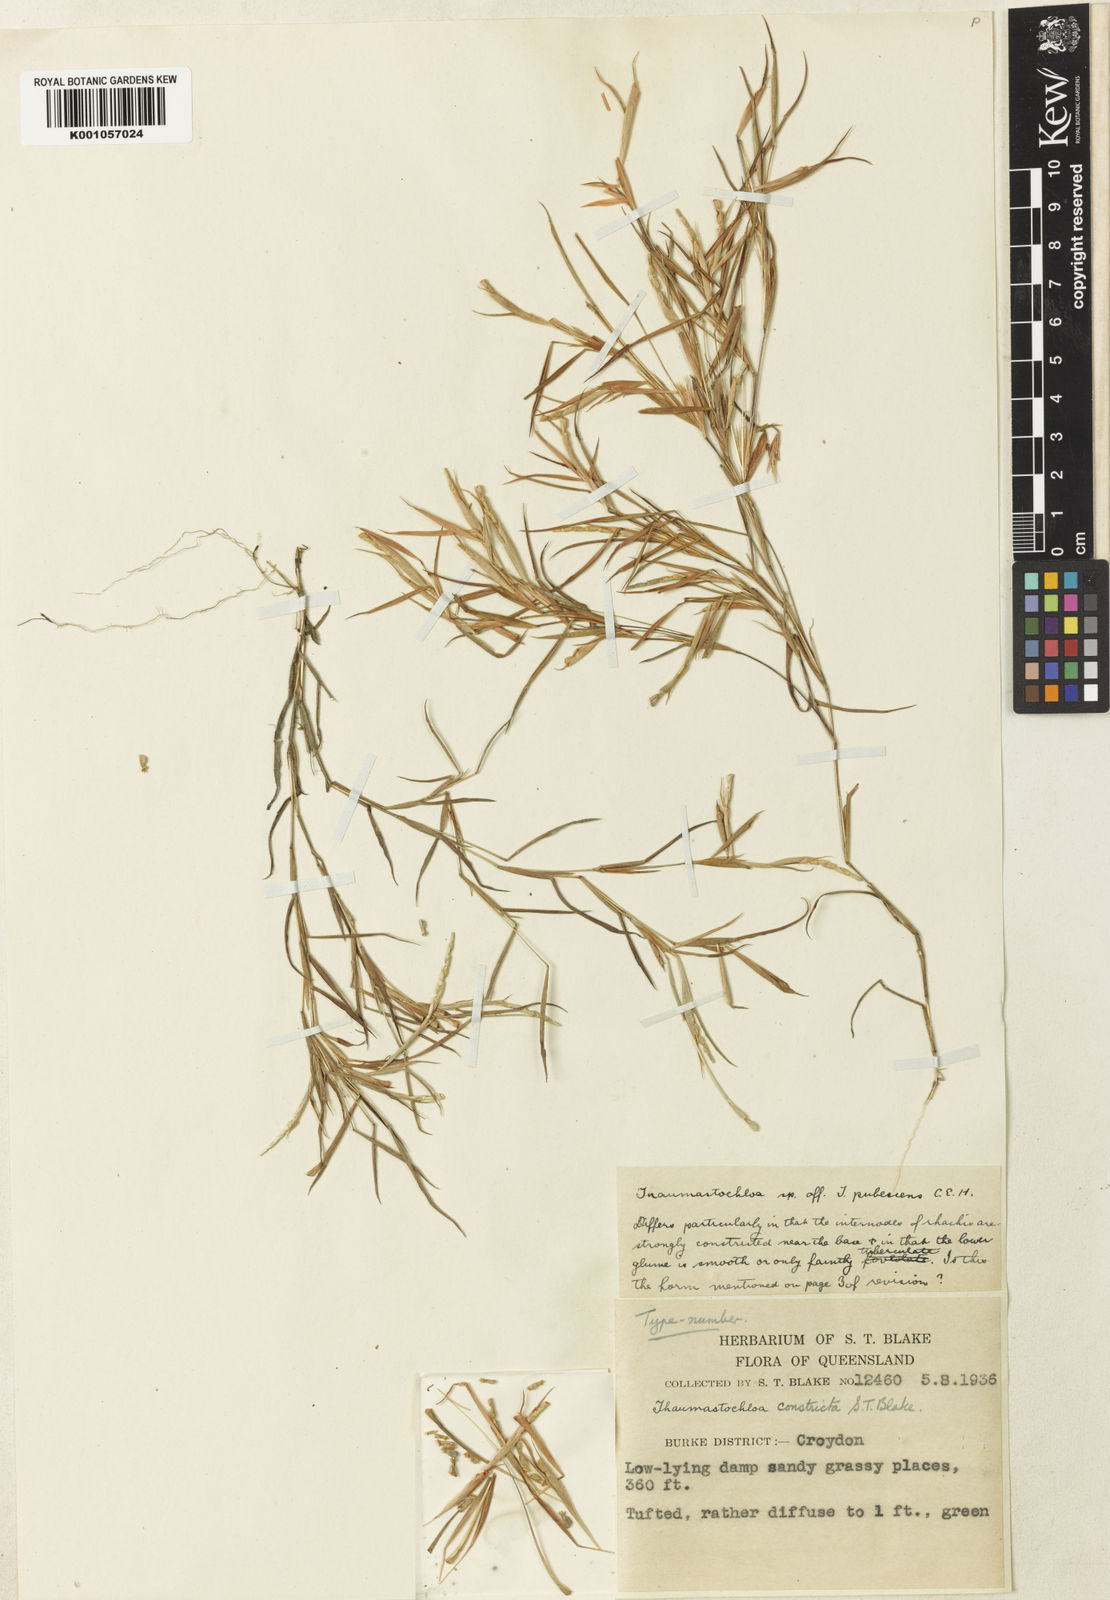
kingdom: Plantae
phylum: Tracheophyta
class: Liliopsida
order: Poales
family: Poaceae
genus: Thaumastochloa
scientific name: Thaumastochloa pubescens
